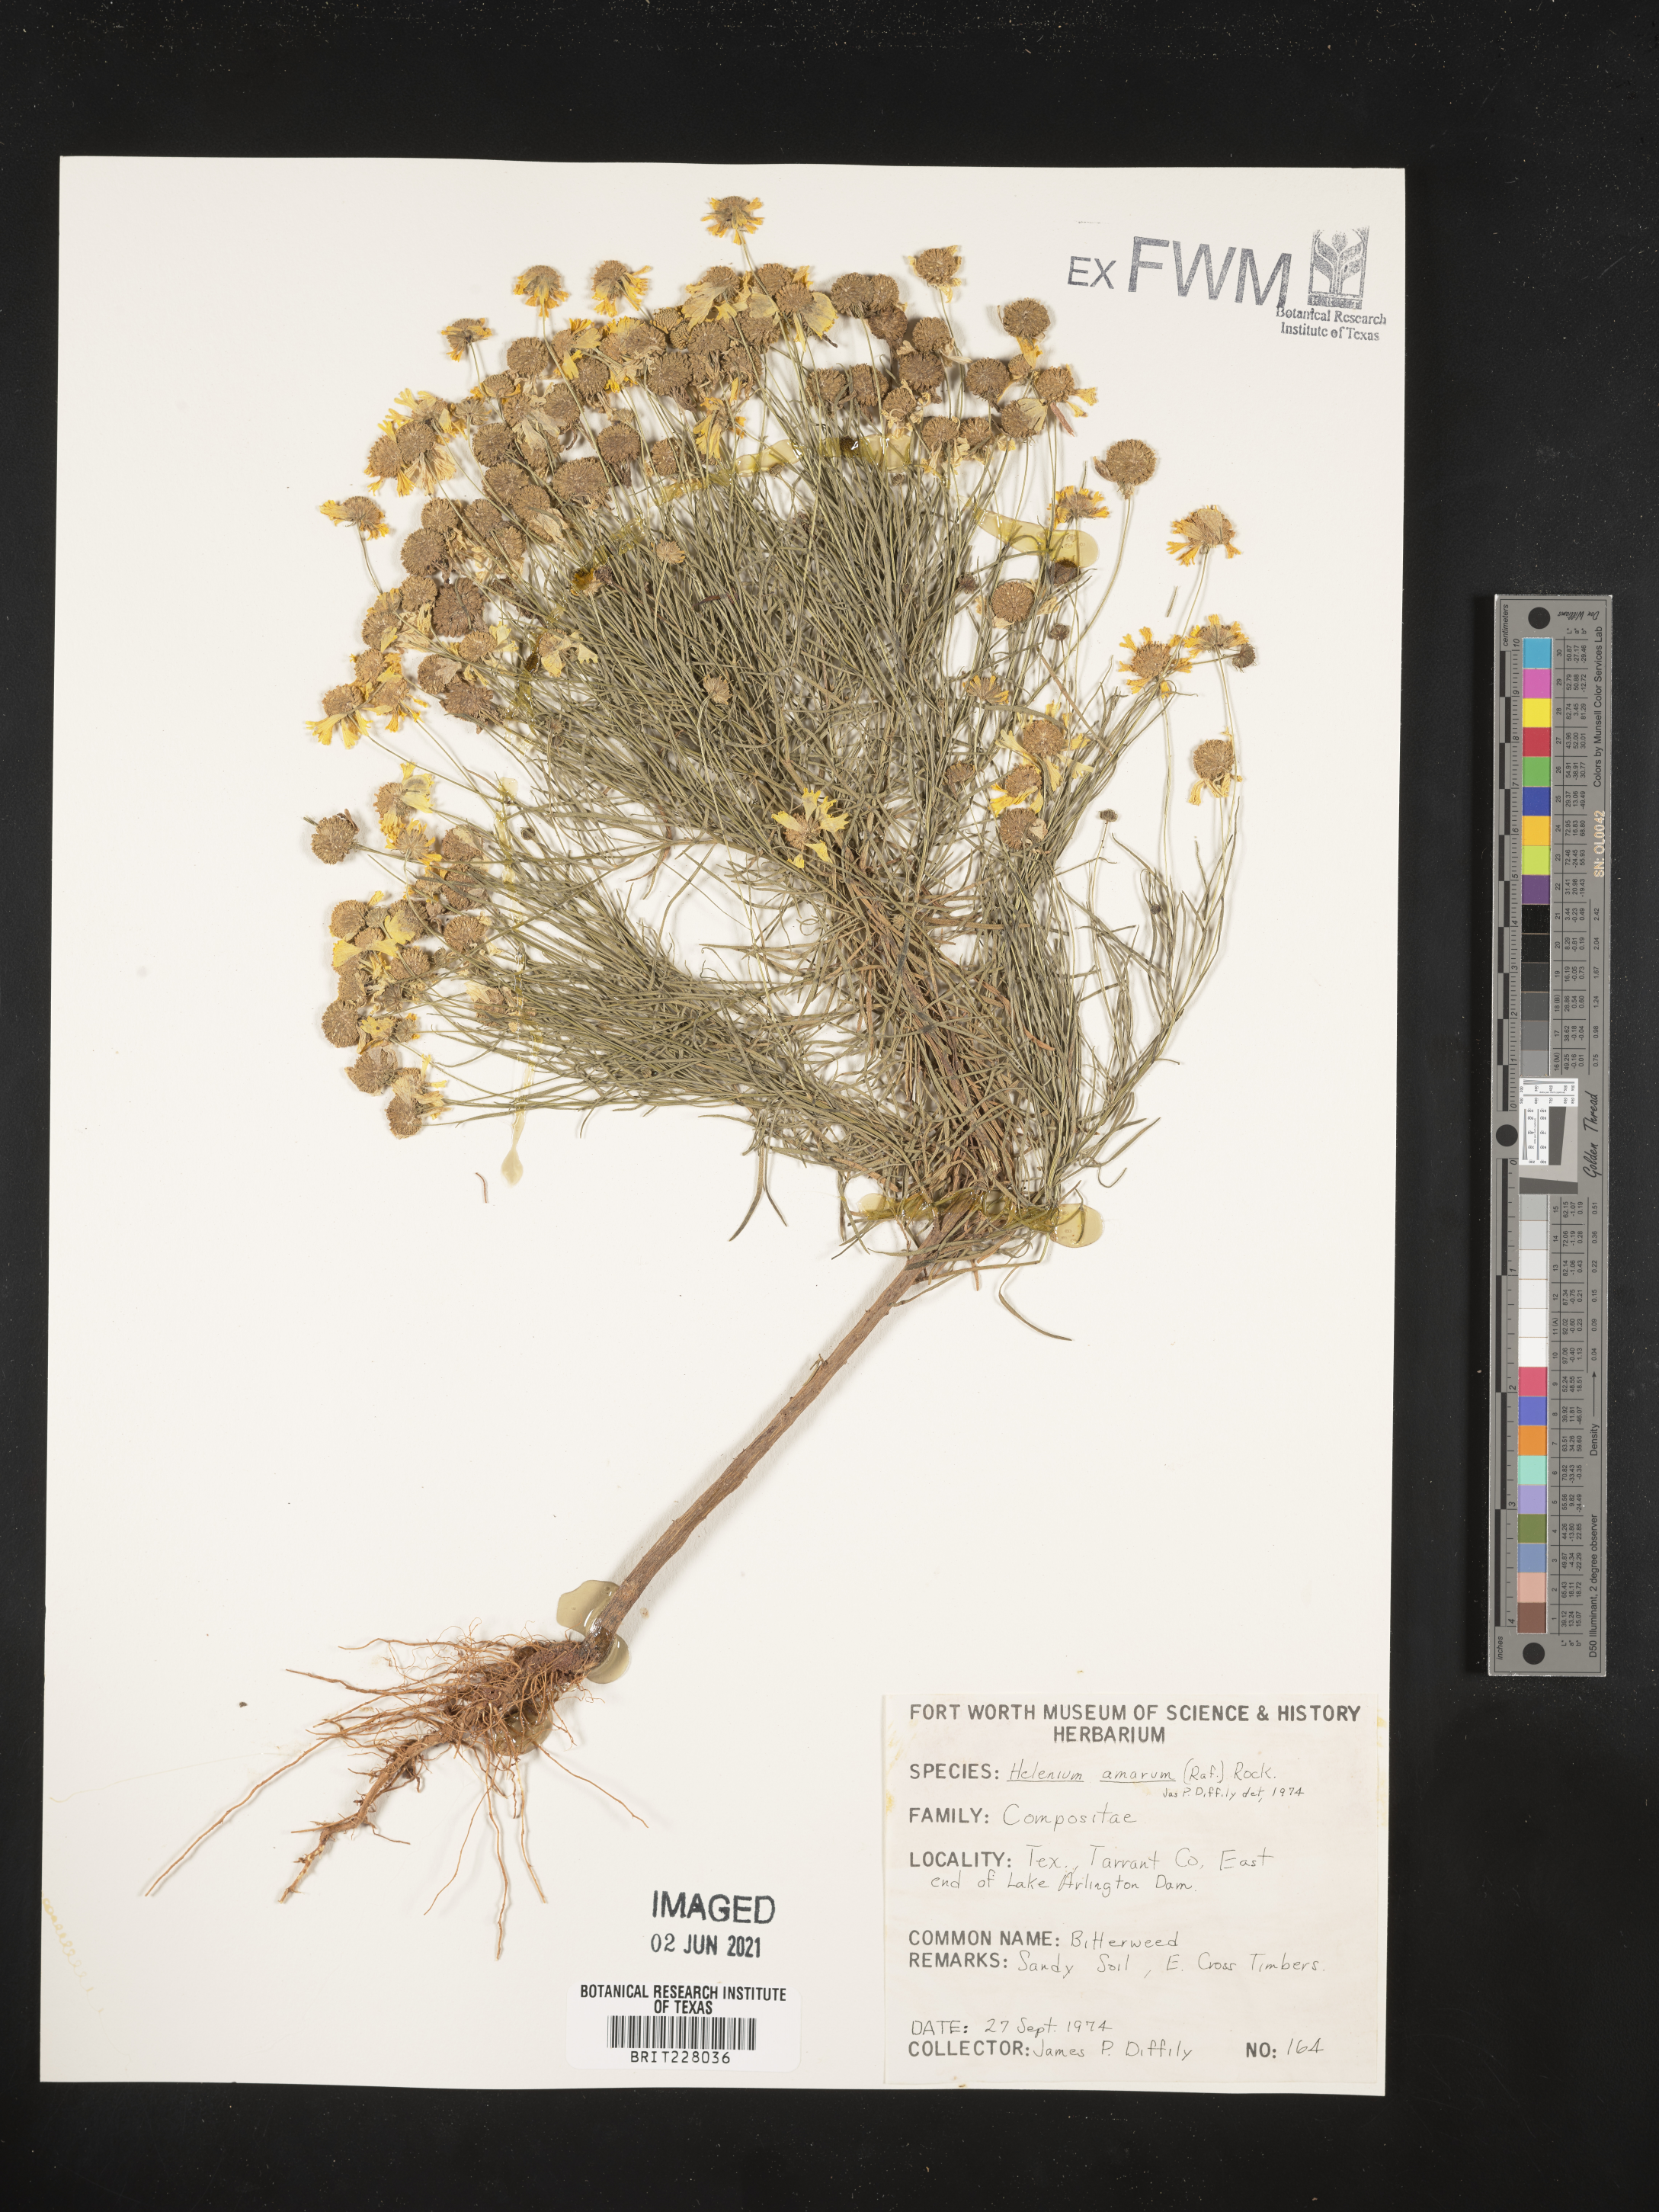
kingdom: Plantae
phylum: Tracheophyta
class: Magnoliopsida
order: Asterales
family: Asteraceae
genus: Helenium
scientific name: Helenium amarum
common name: Bitter sneezeweed
